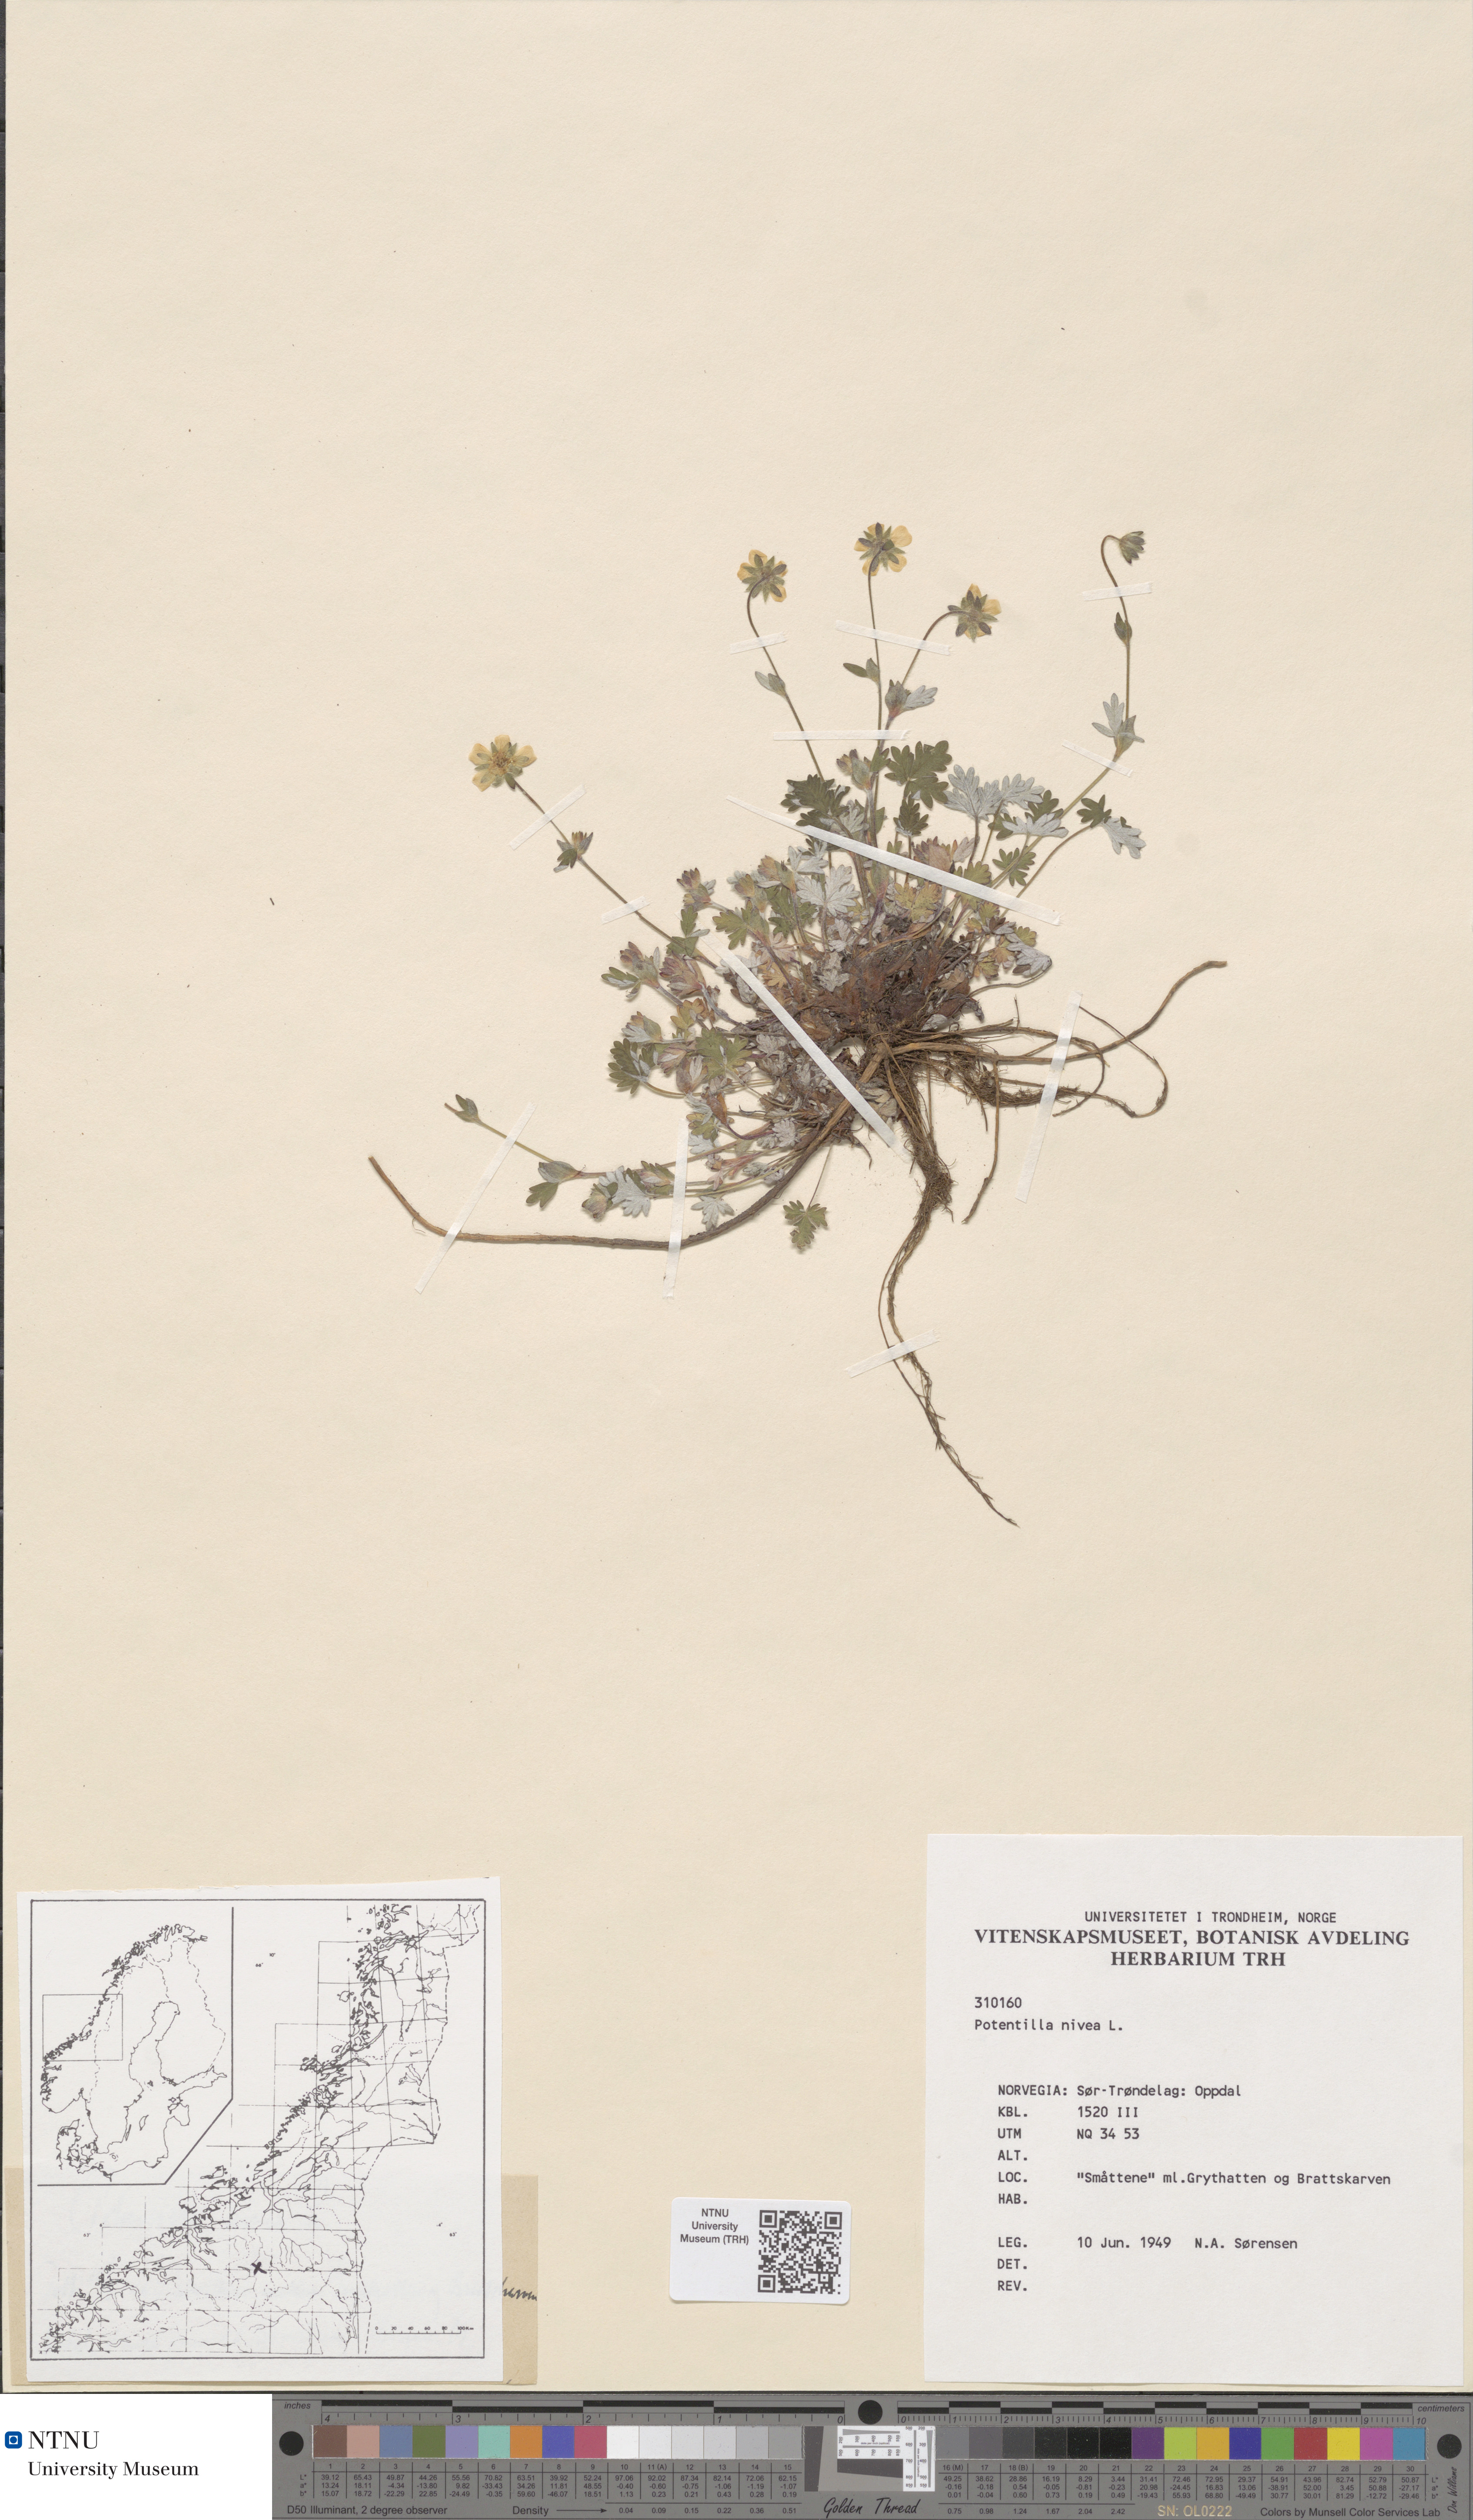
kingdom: Plantae
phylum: Tracheophyta
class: Magnoliopsida
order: Rosales
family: Rosaceae
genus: Potentilla
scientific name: Potentilla nivea
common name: Snow cinquefoil
